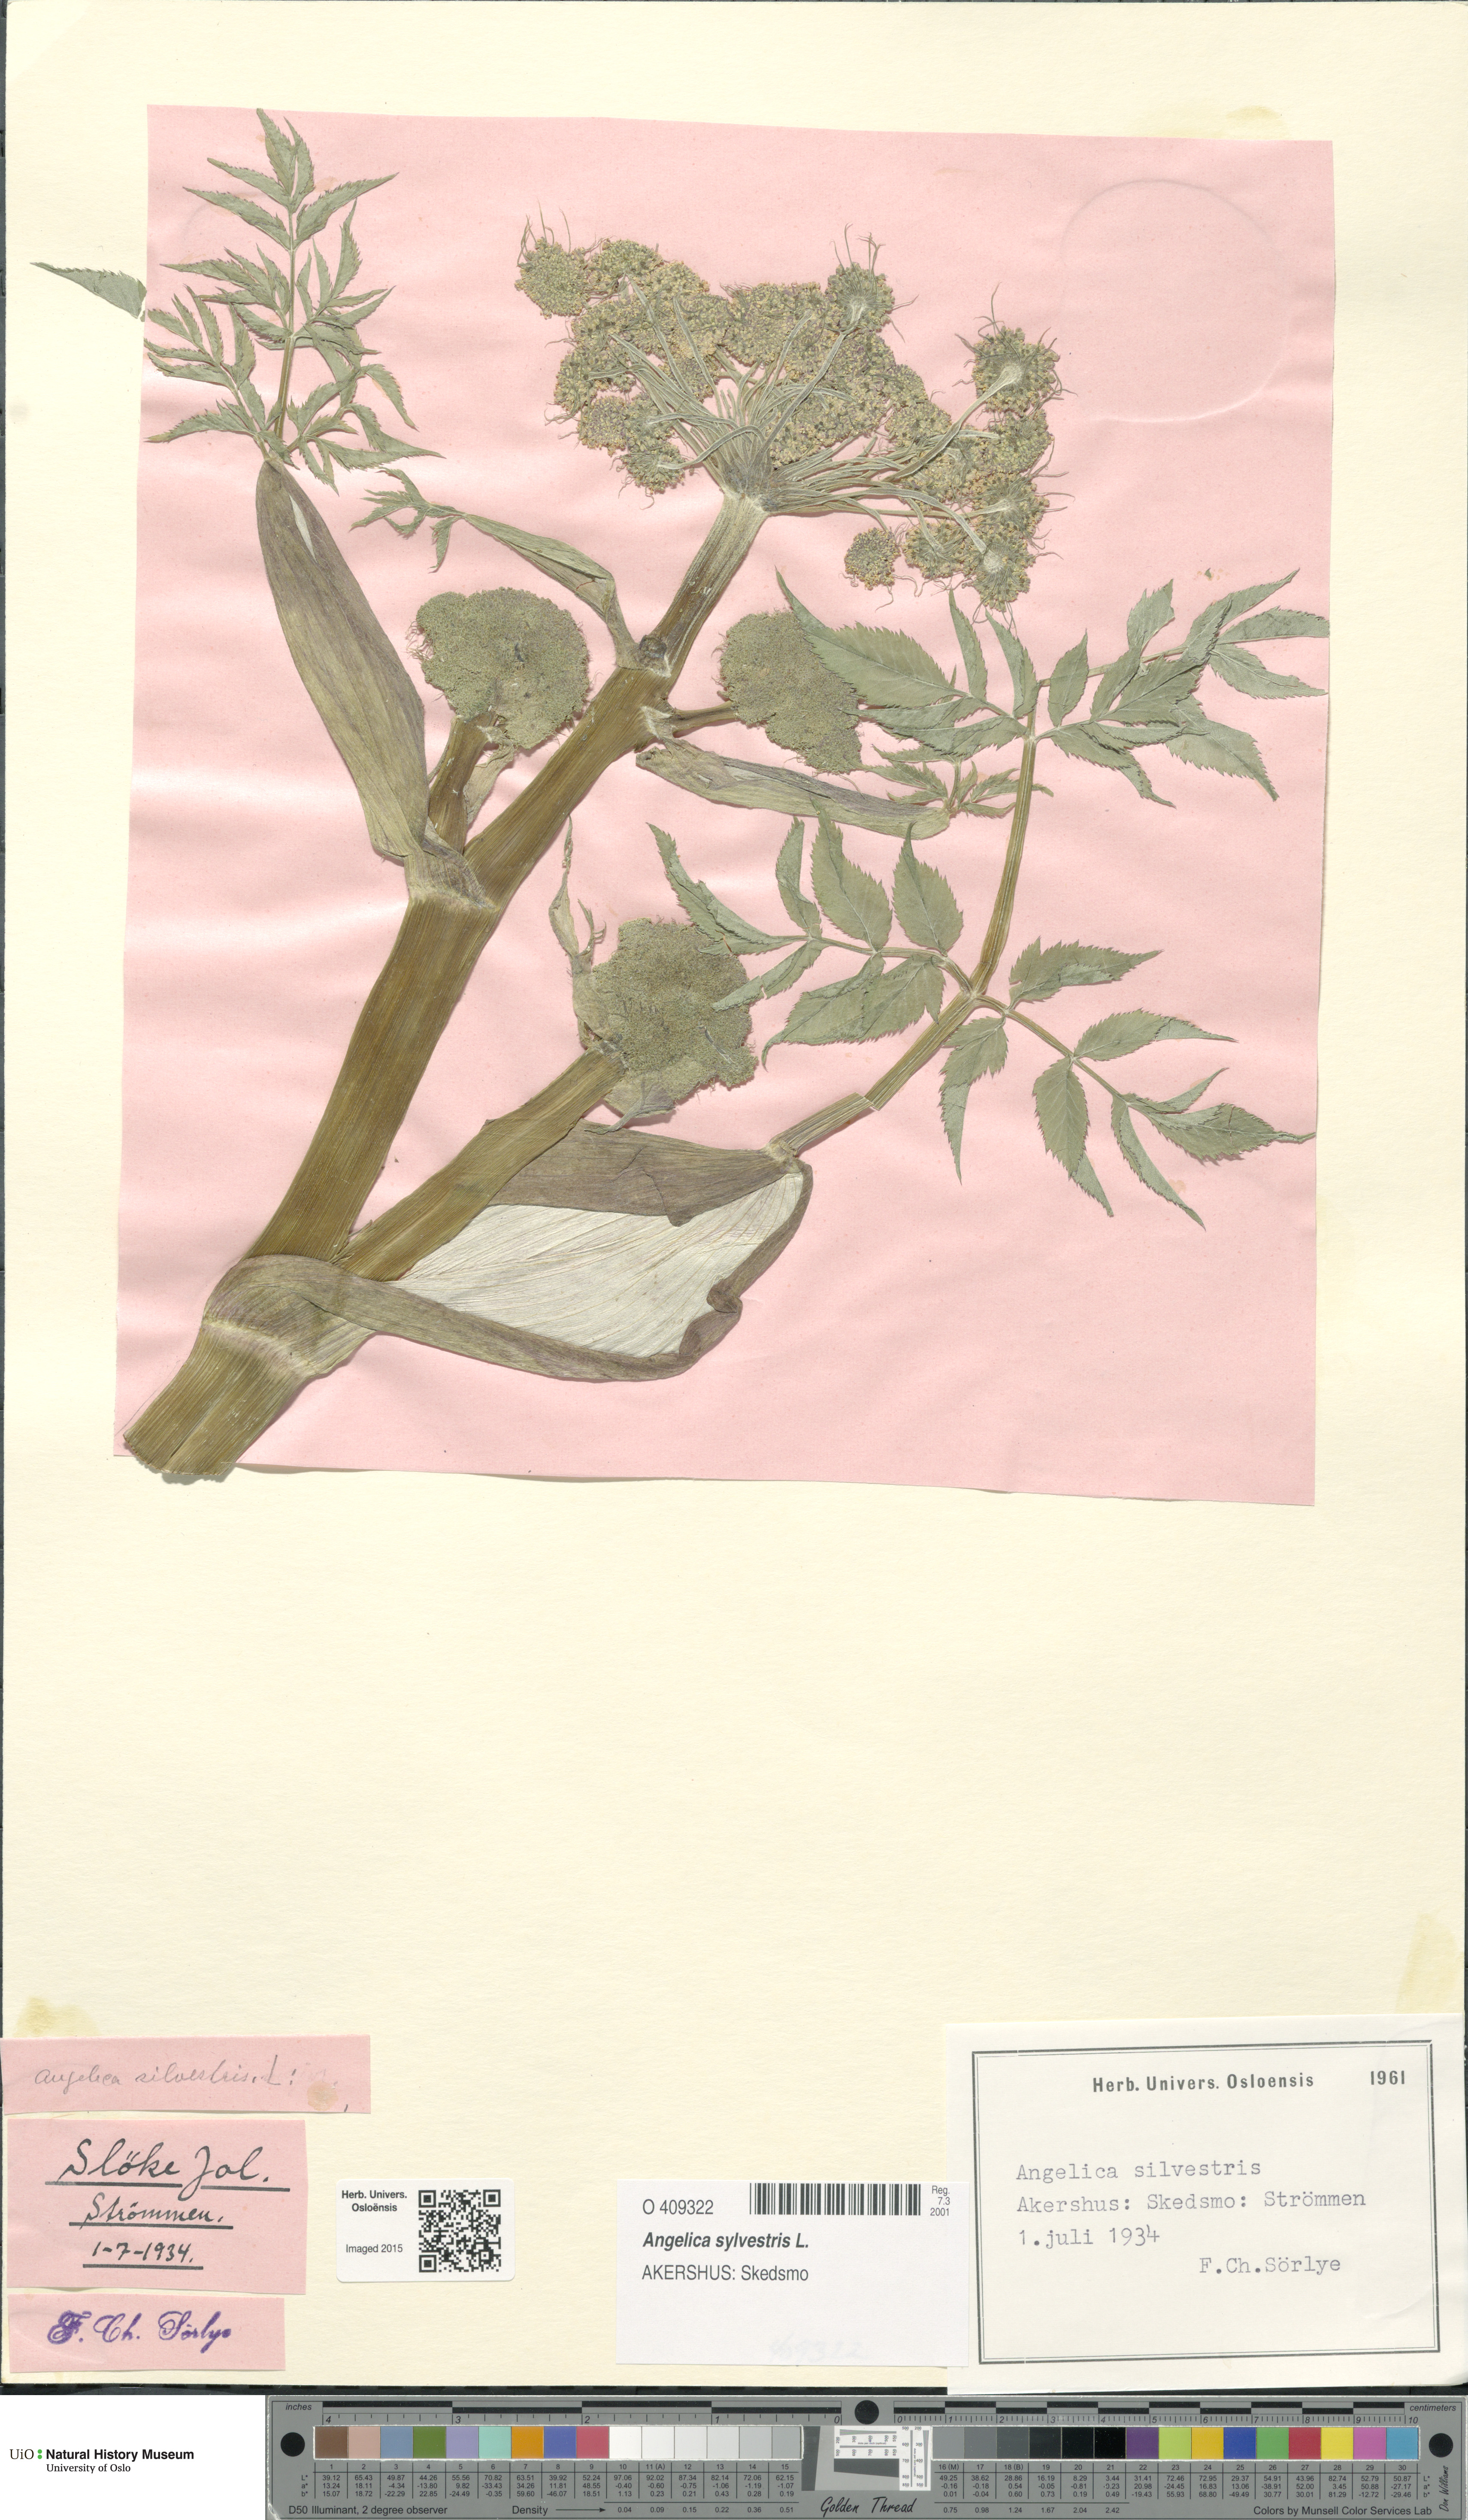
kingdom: Plantae
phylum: Tracheophyta
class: Magnoliopsida
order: Apiales
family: Apiaceae
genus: Angelica
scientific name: Angelica sylvestris
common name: Wild angelica
